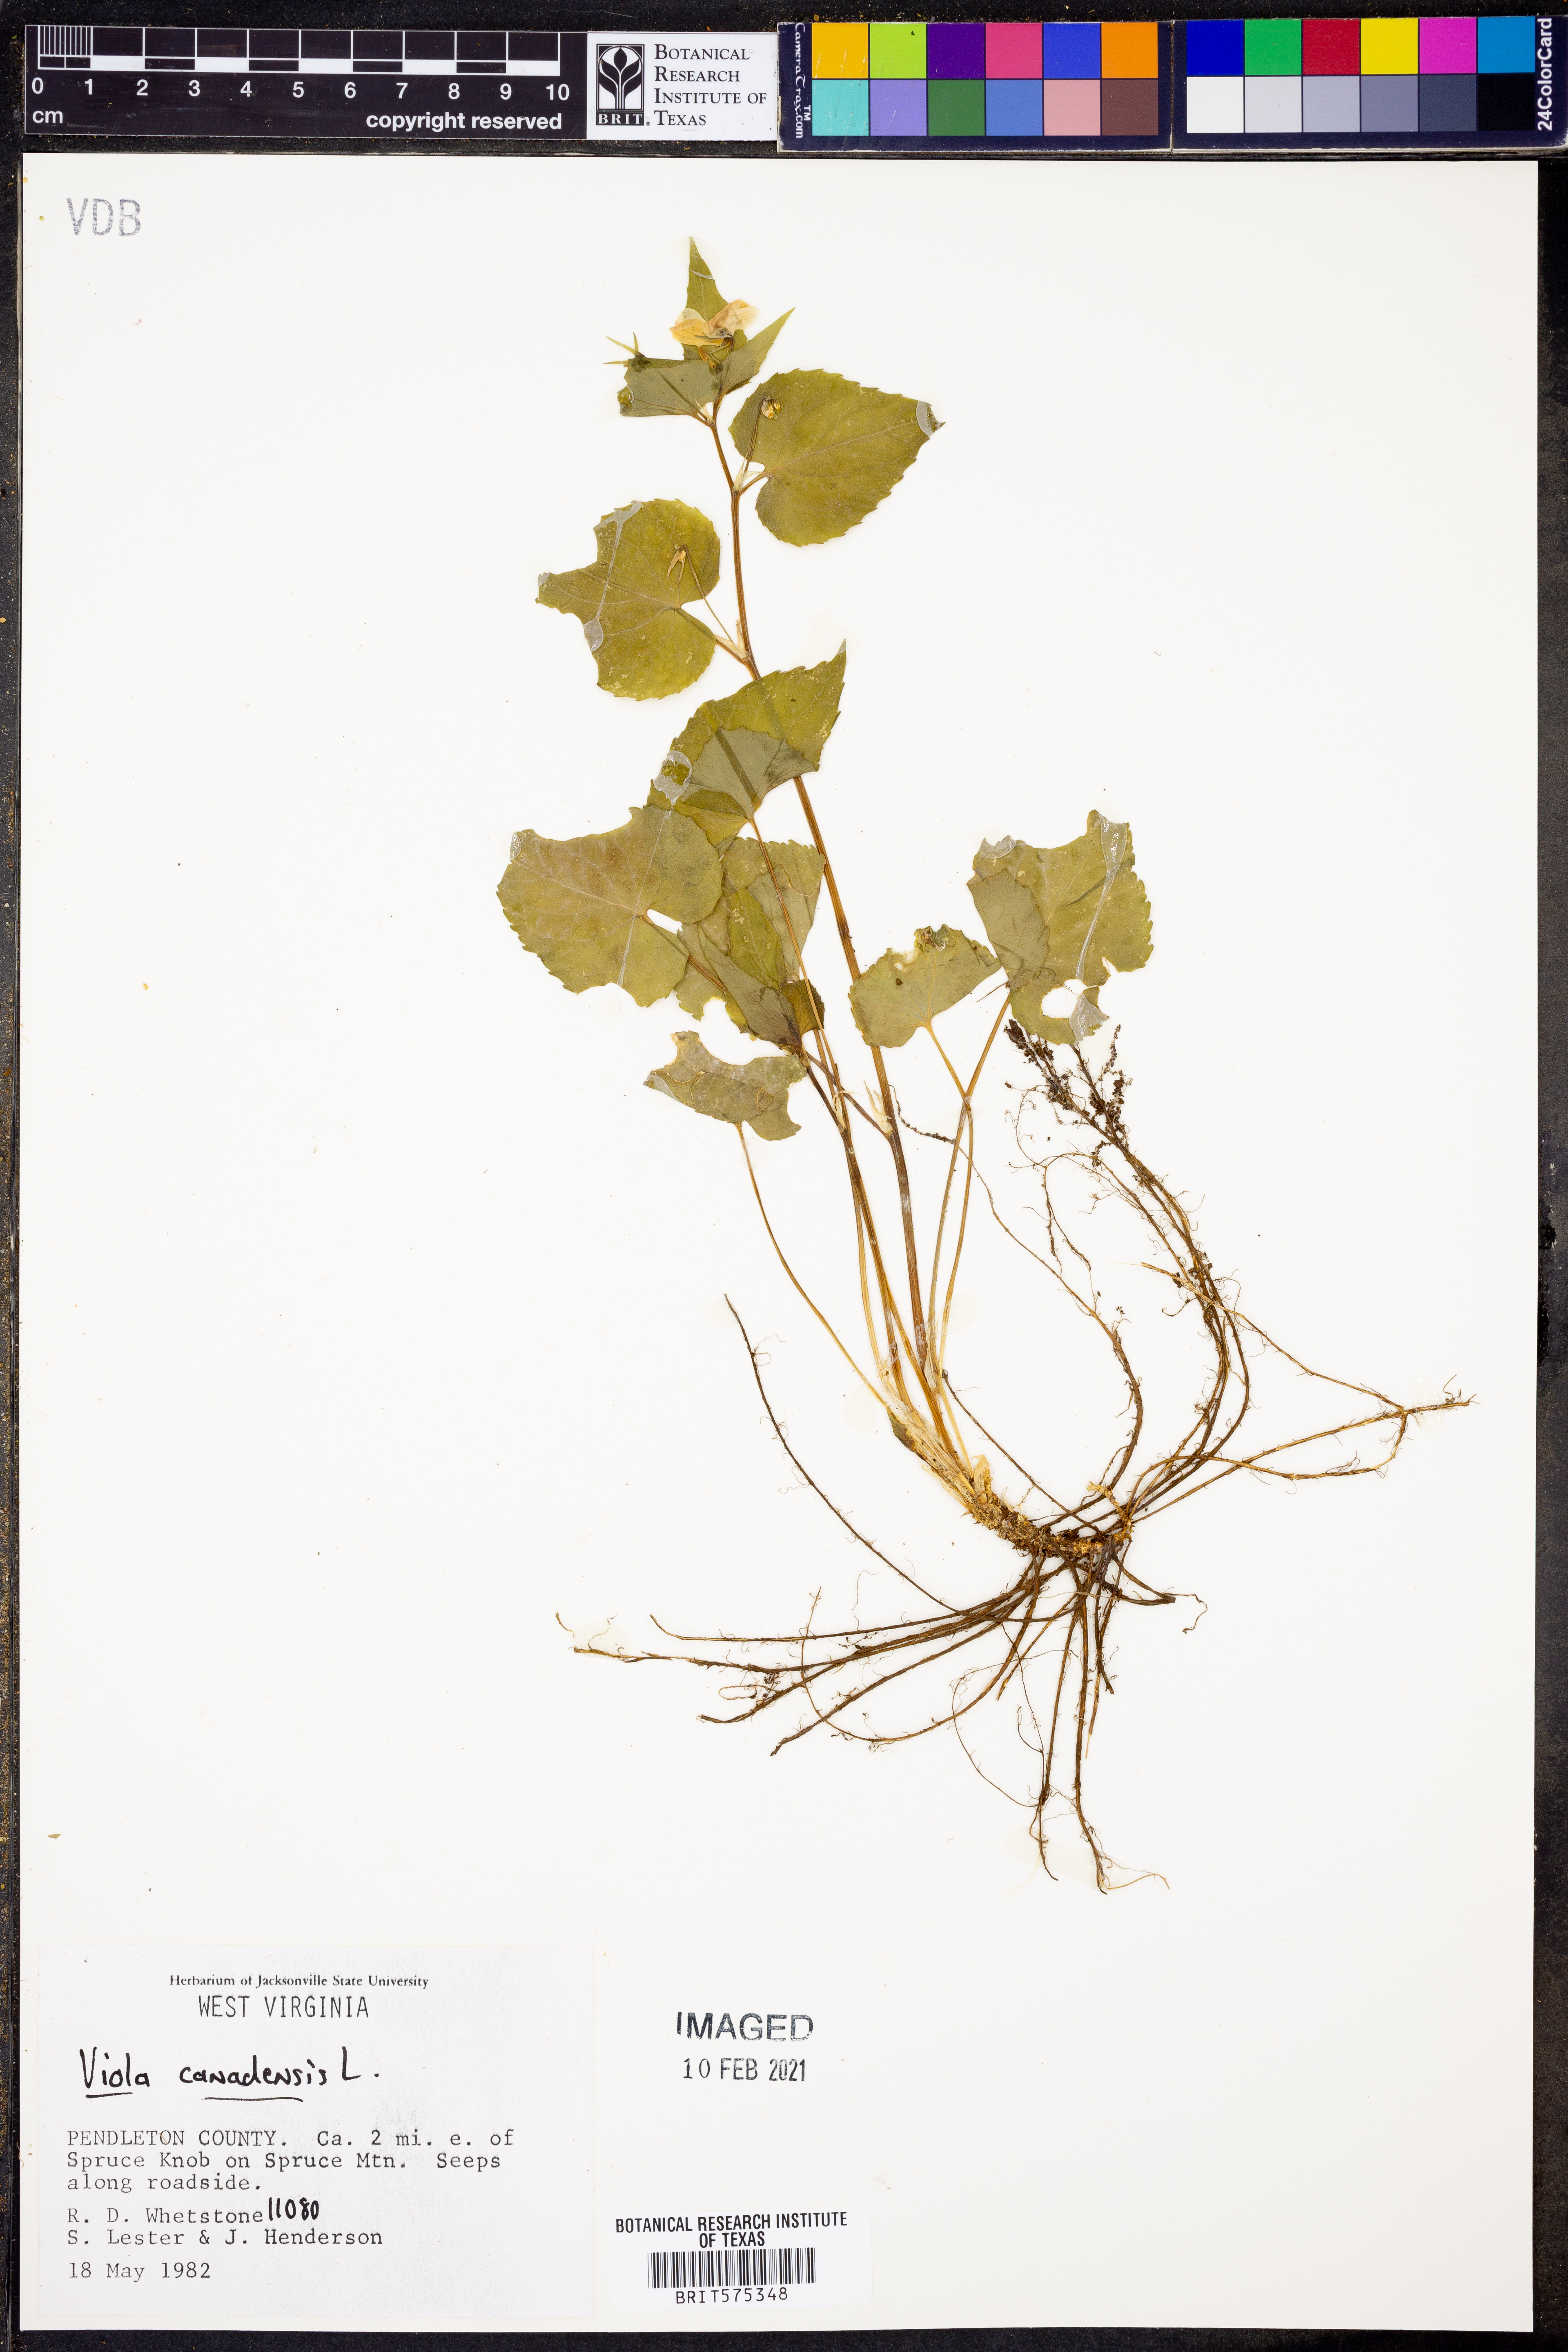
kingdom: Plantae
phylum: Tracheophyta
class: Magnoliopsida
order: Malpighiales
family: Violaceae
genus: Viola
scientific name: Viola canadensis
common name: Canada violet
